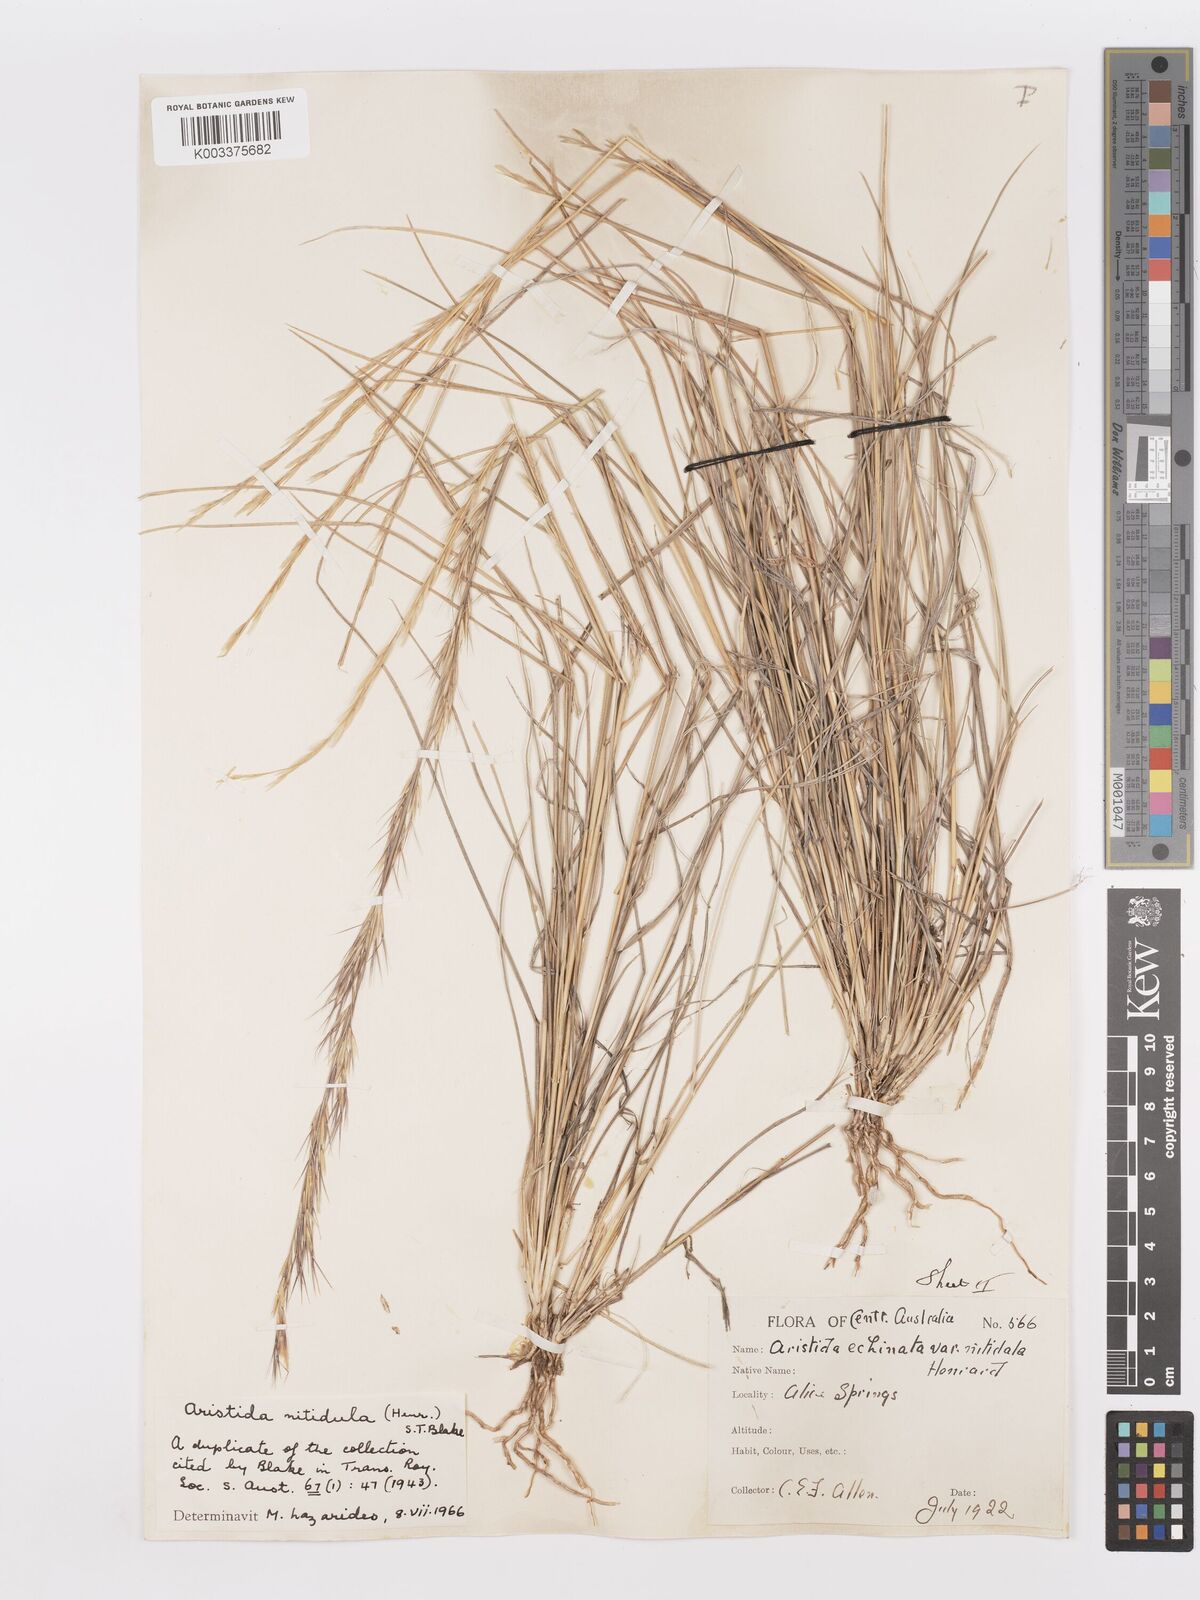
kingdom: Plantae
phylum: Tracheophyta
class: Liliopsida
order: Poales
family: Poaceae
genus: Aristida
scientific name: Aristida nitidula
